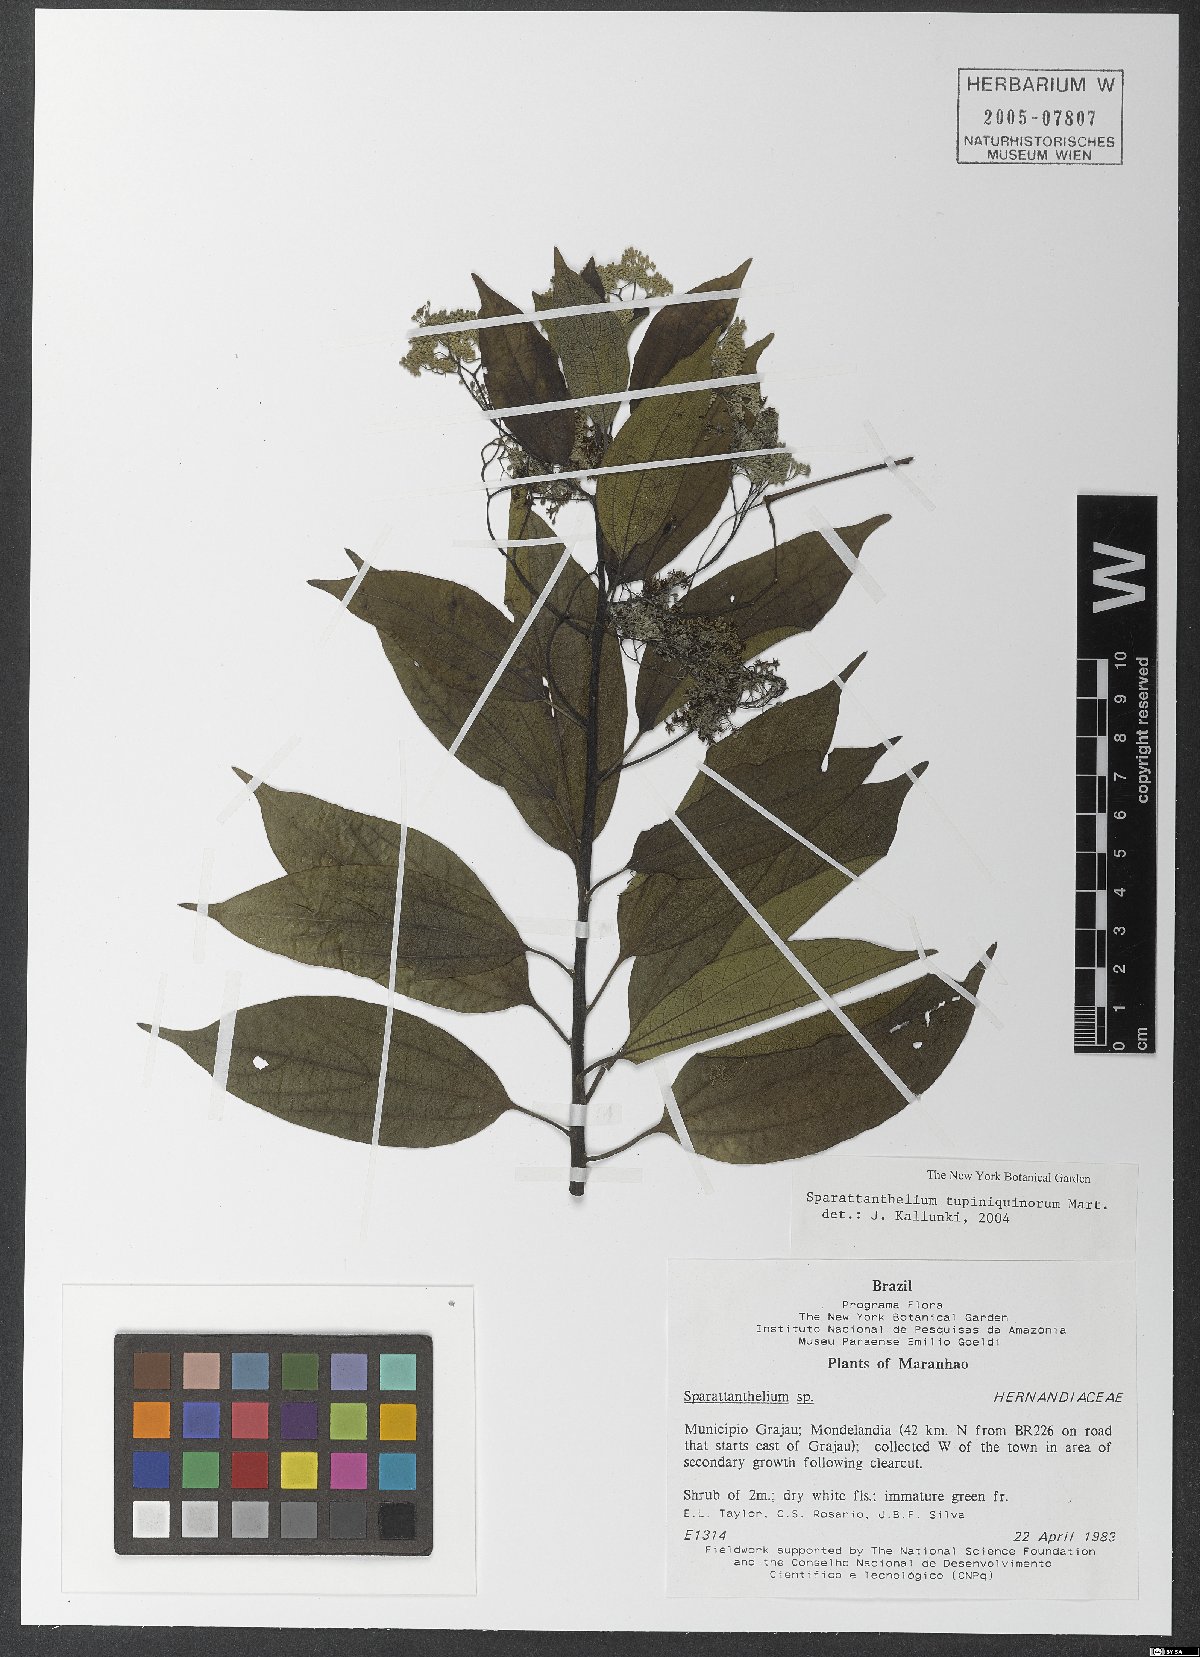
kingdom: Plantae
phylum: Tracheophyta
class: Magnoliopsida
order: Laurales
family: Hernandiaceae
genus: Sparattanthelium
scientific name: Sparattanthelium tupiniquinorum
